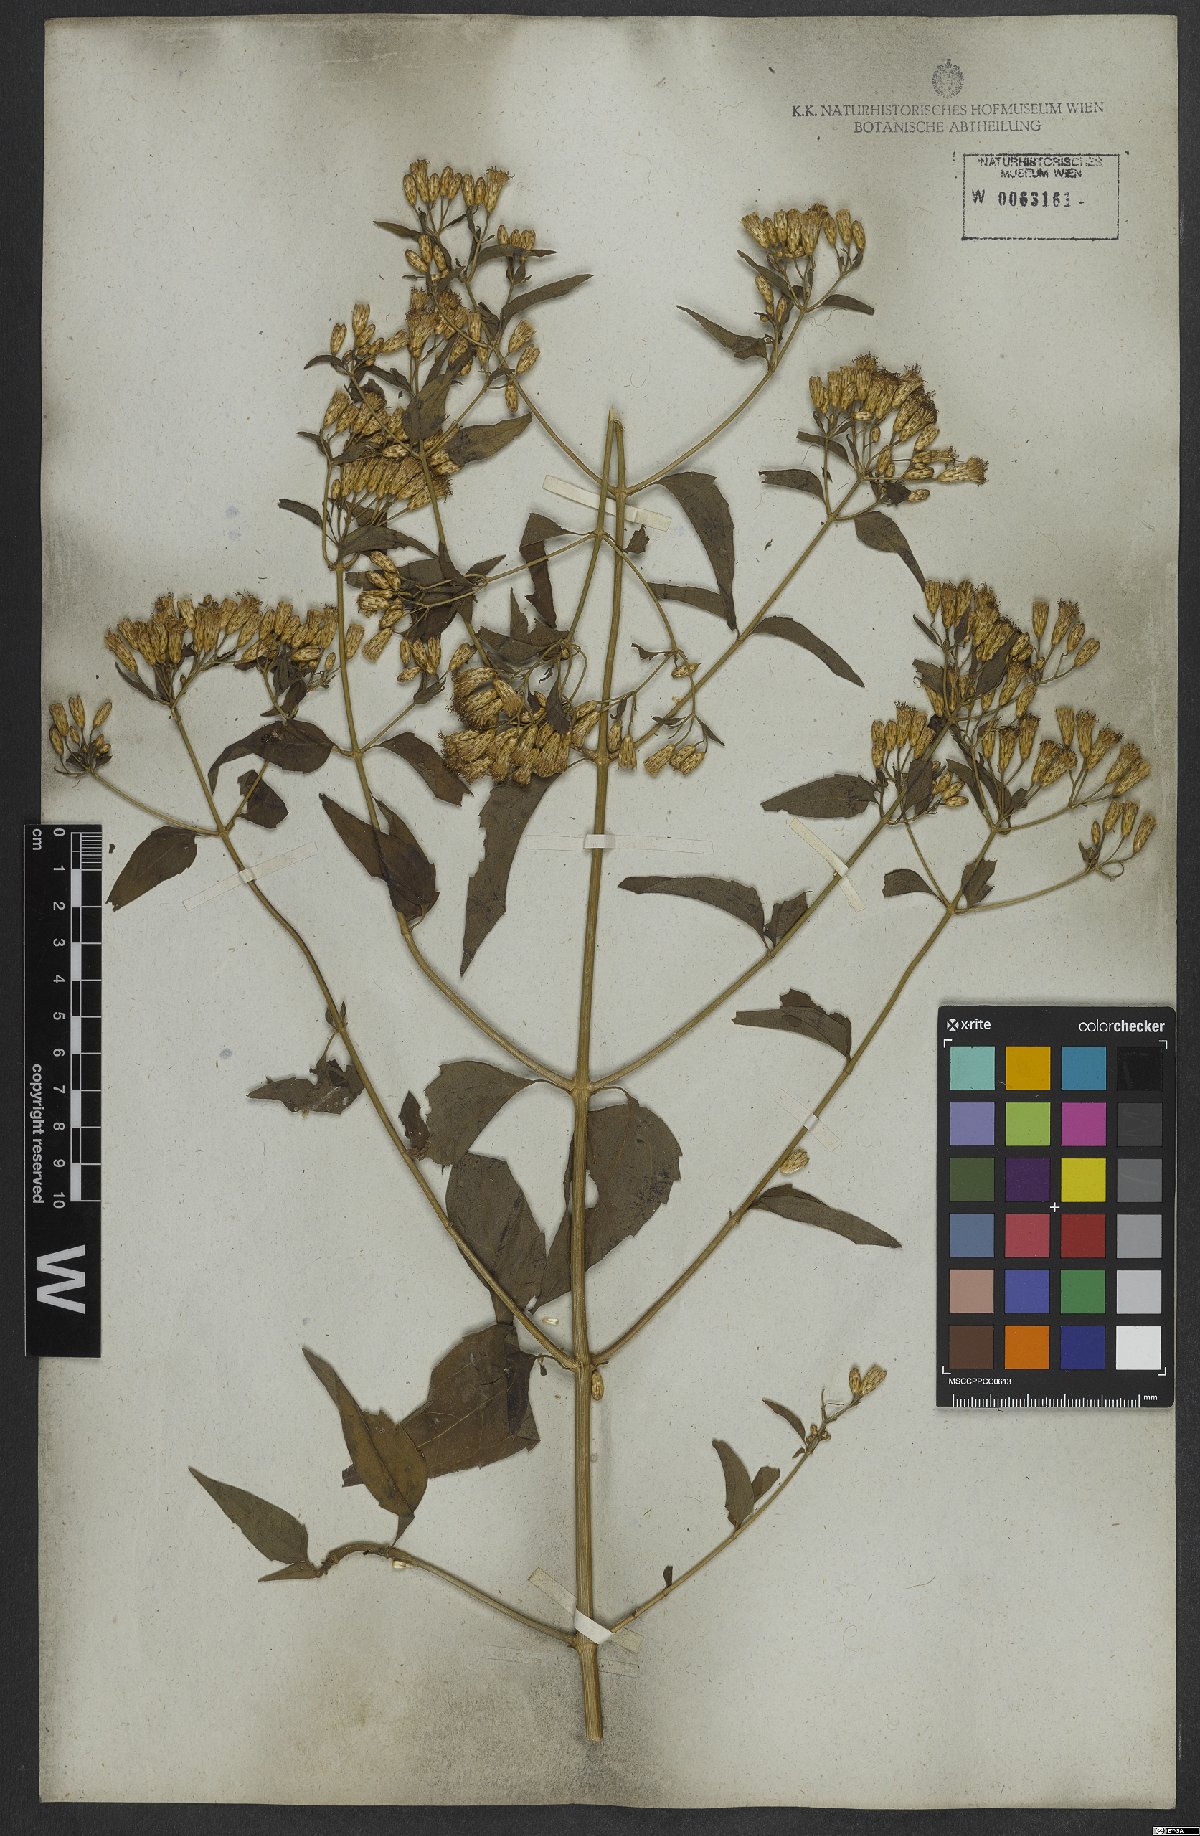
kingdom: Plantae
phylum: Tracheophyta
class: Magnoliopsida
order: Asterales
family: Asteraceae
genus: Chromolaena
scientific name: Chromolaena odorata
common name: Siamweed
